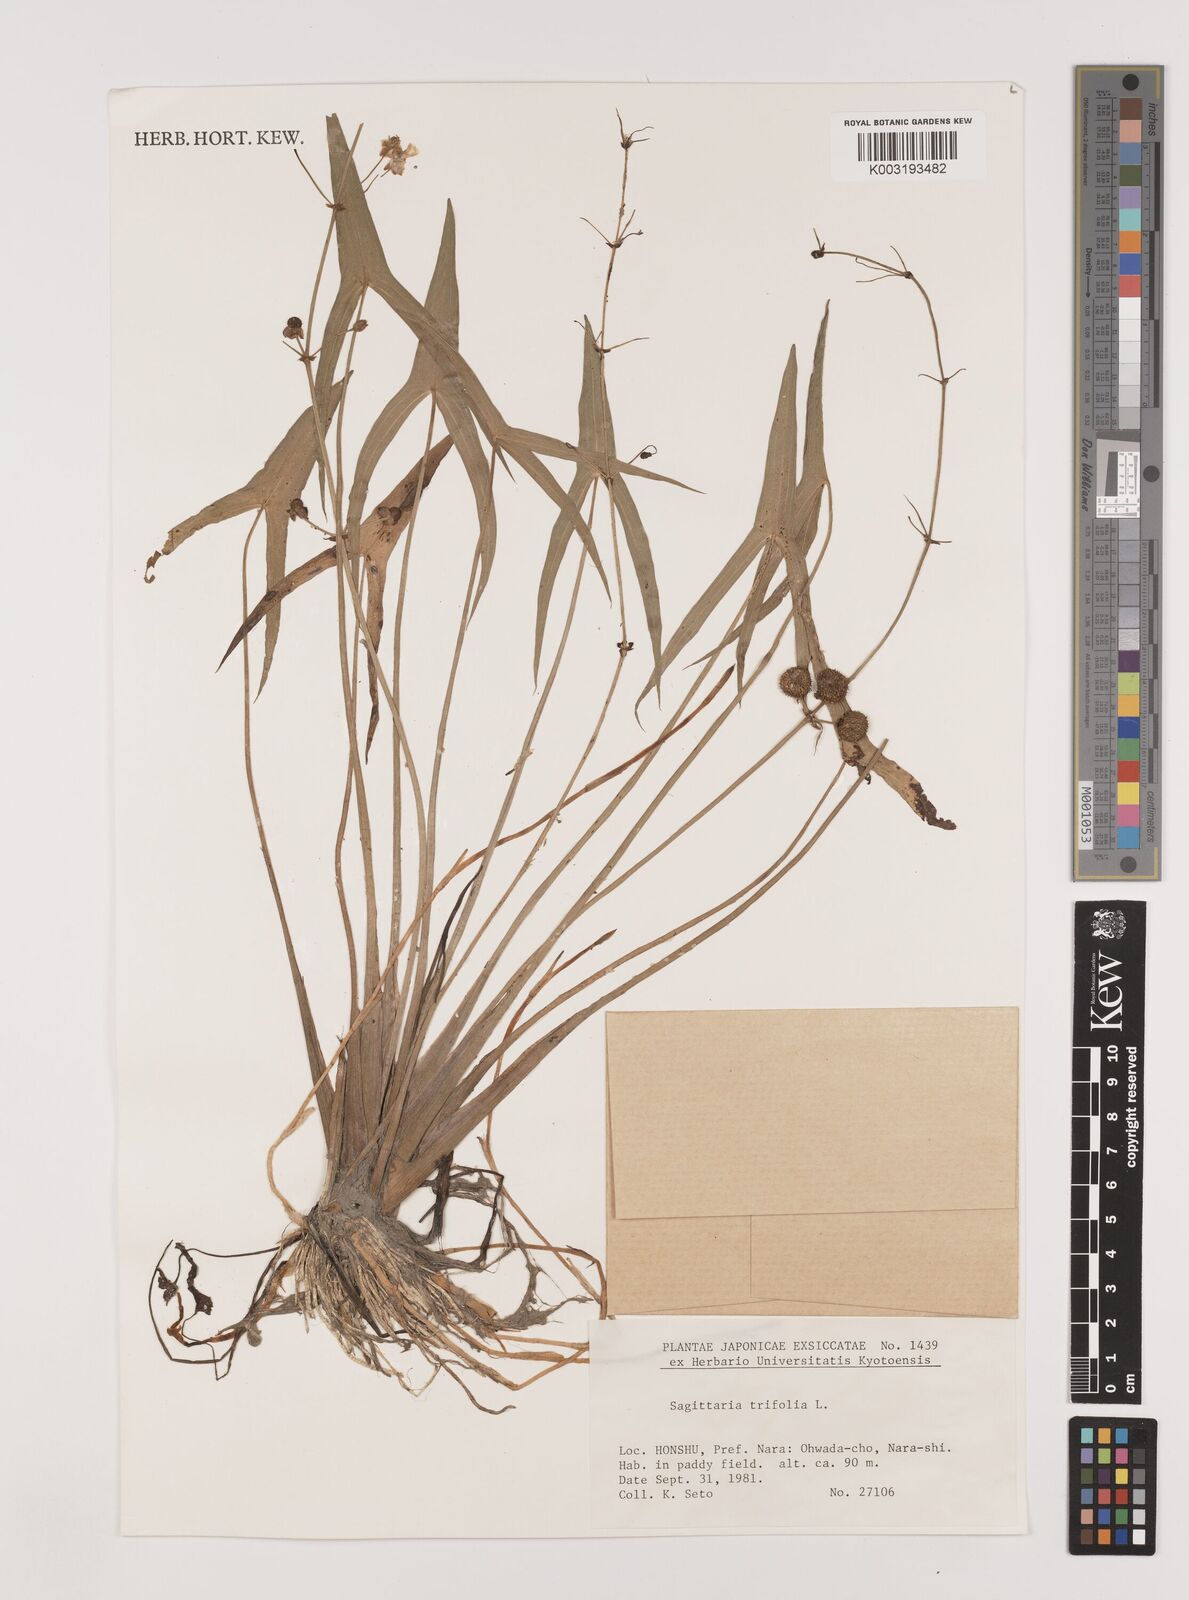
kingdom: Plantae
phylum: Tracheophyta
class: Liliopsida
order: Alismatales
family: Alismataceae
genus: Sagittaria
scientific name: Sagittaria aginashi
